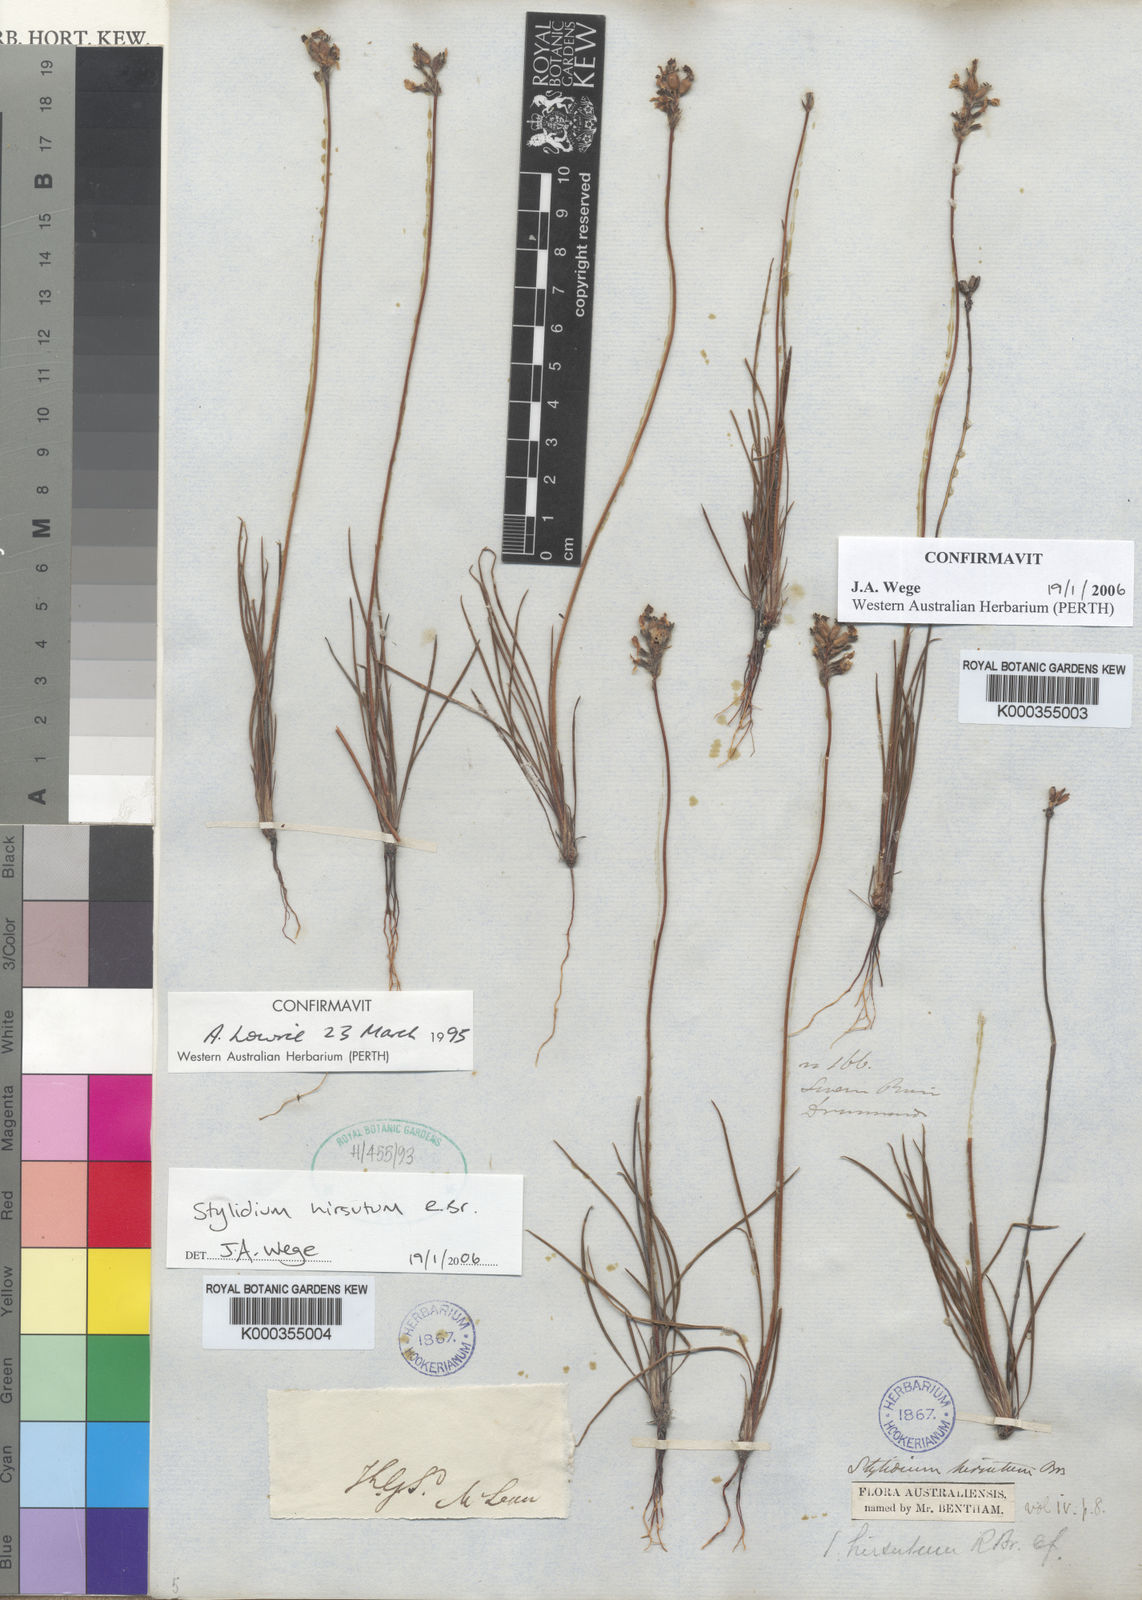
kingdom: Plantae
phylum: Tracheophyta
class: Magnoliopsida
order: Asterales
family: Stylidiaceae
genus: Stylidium
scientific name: Stylidium hirsutum
